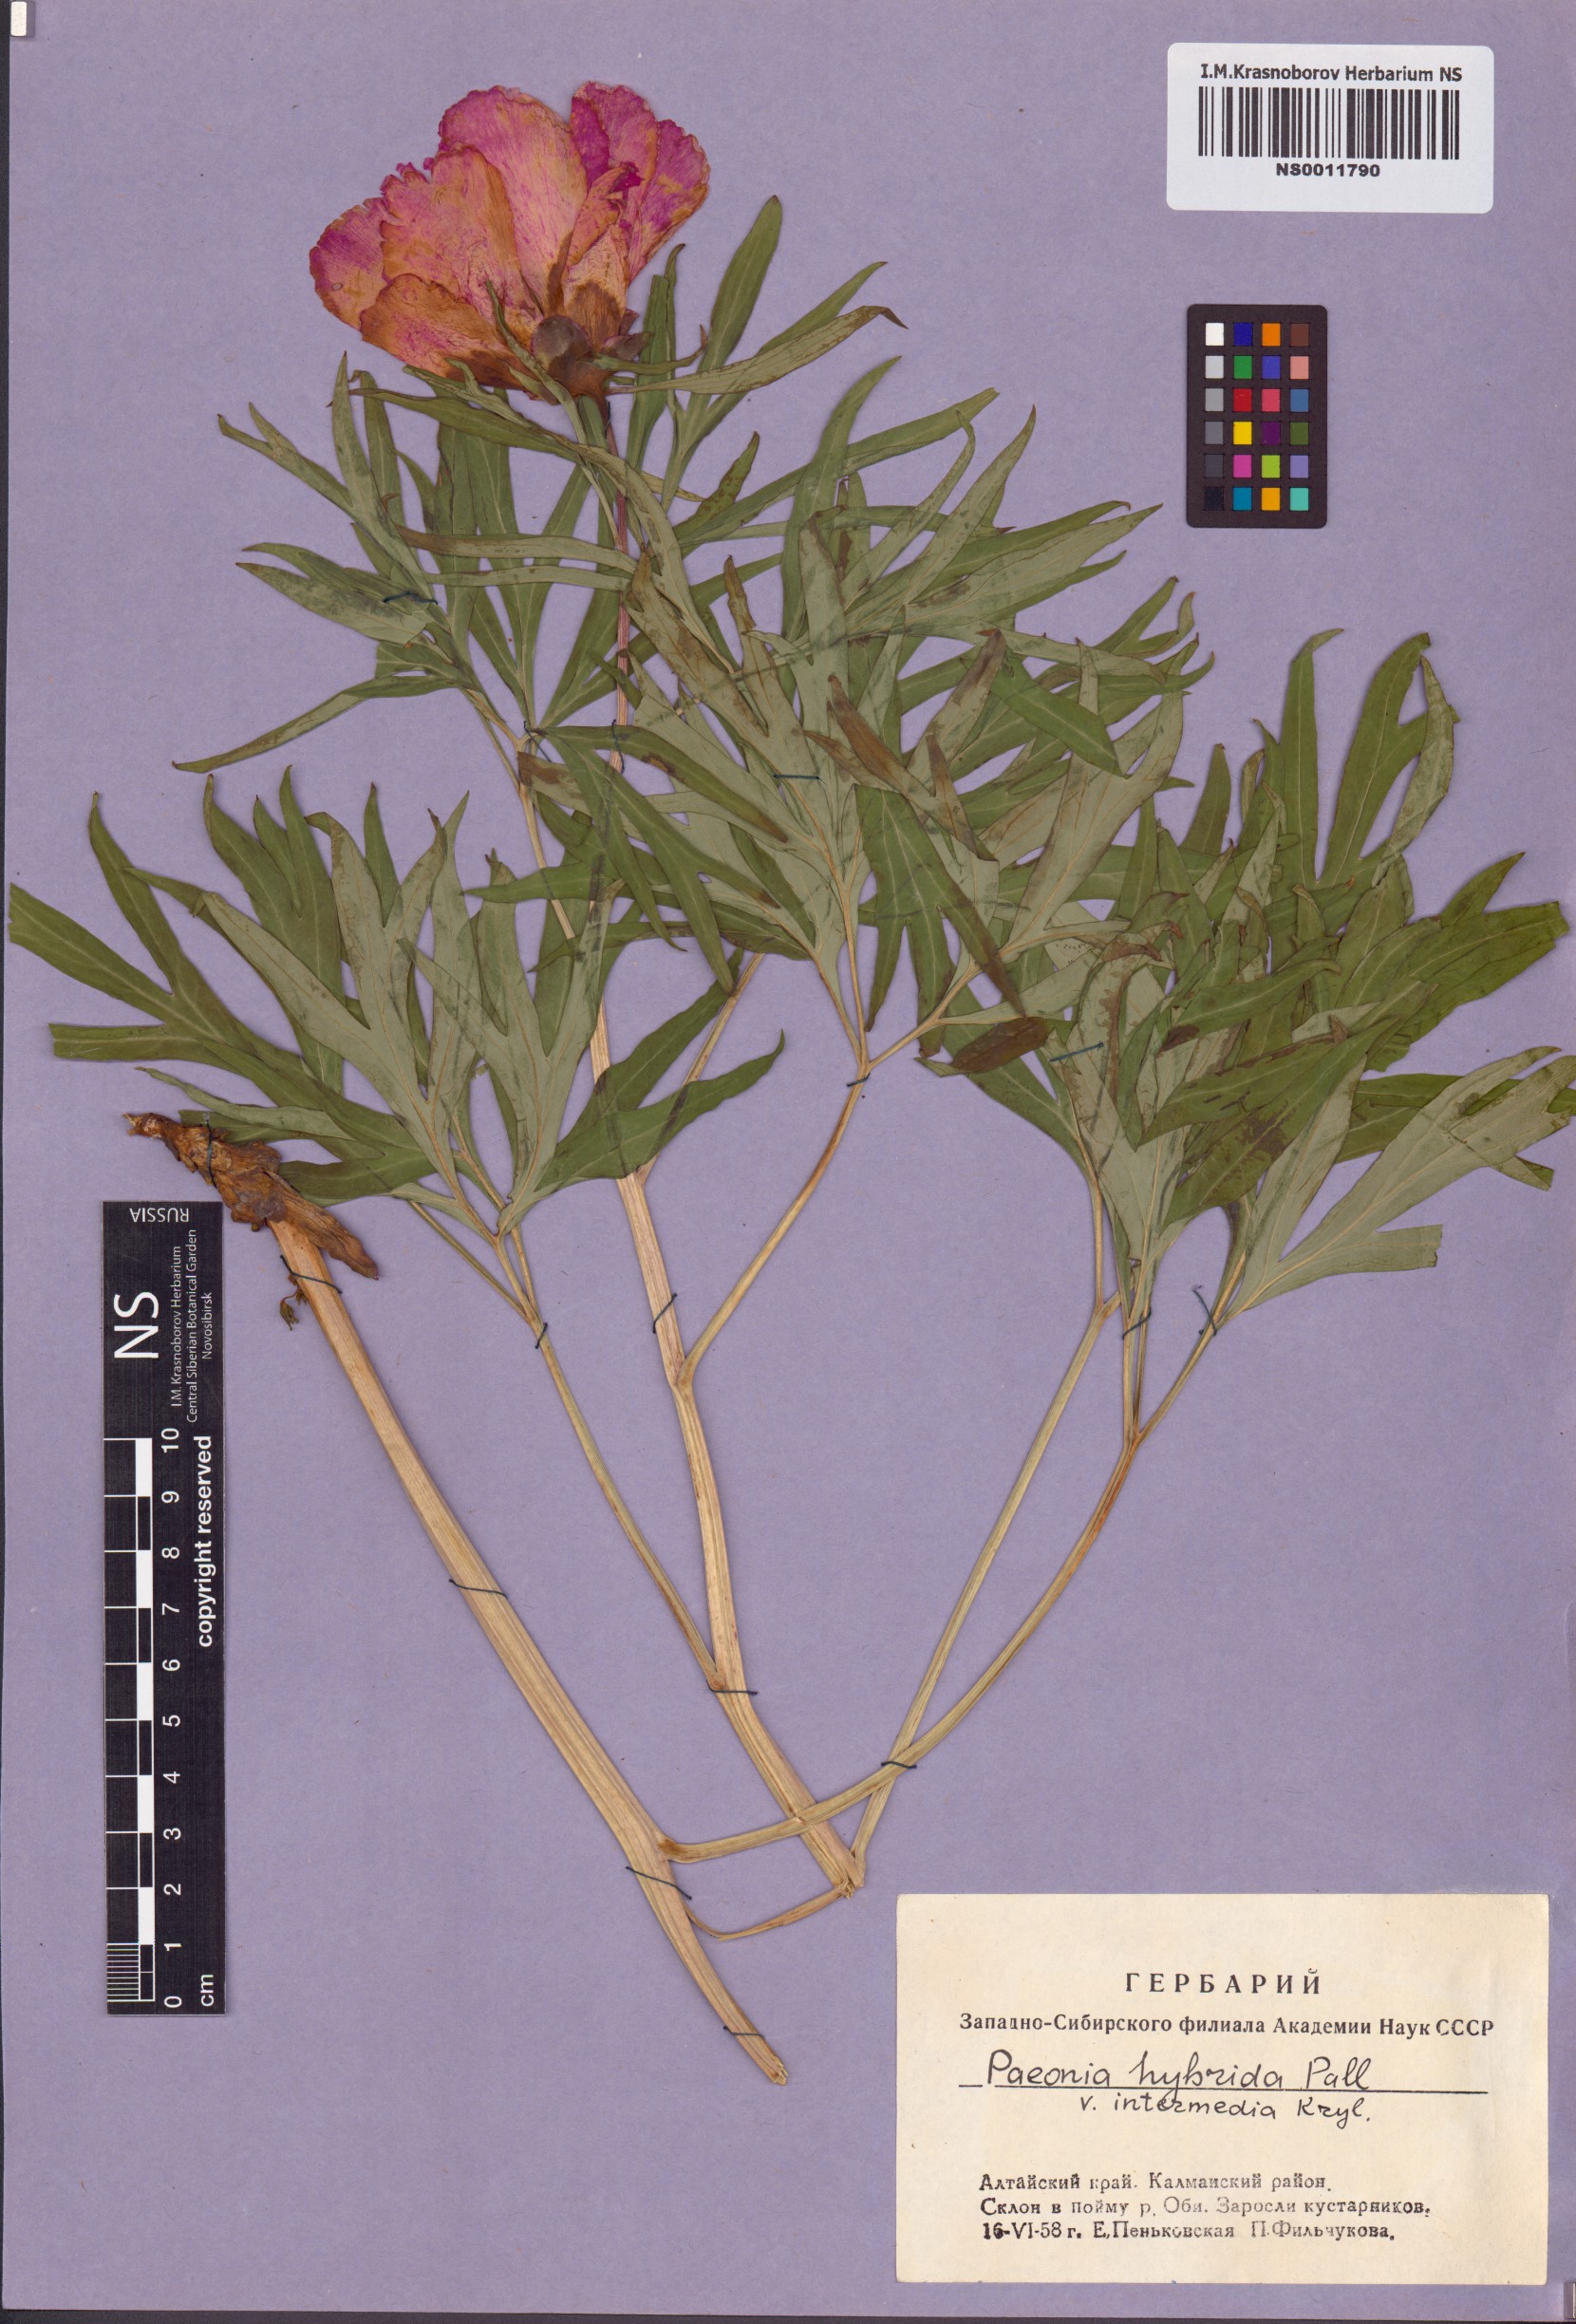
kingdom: Plantae
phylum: Tracheophyta
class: Magnoliopsida
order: Saxifragales
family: Paeoniaceae
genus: Paeonia
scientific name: Paeonia
